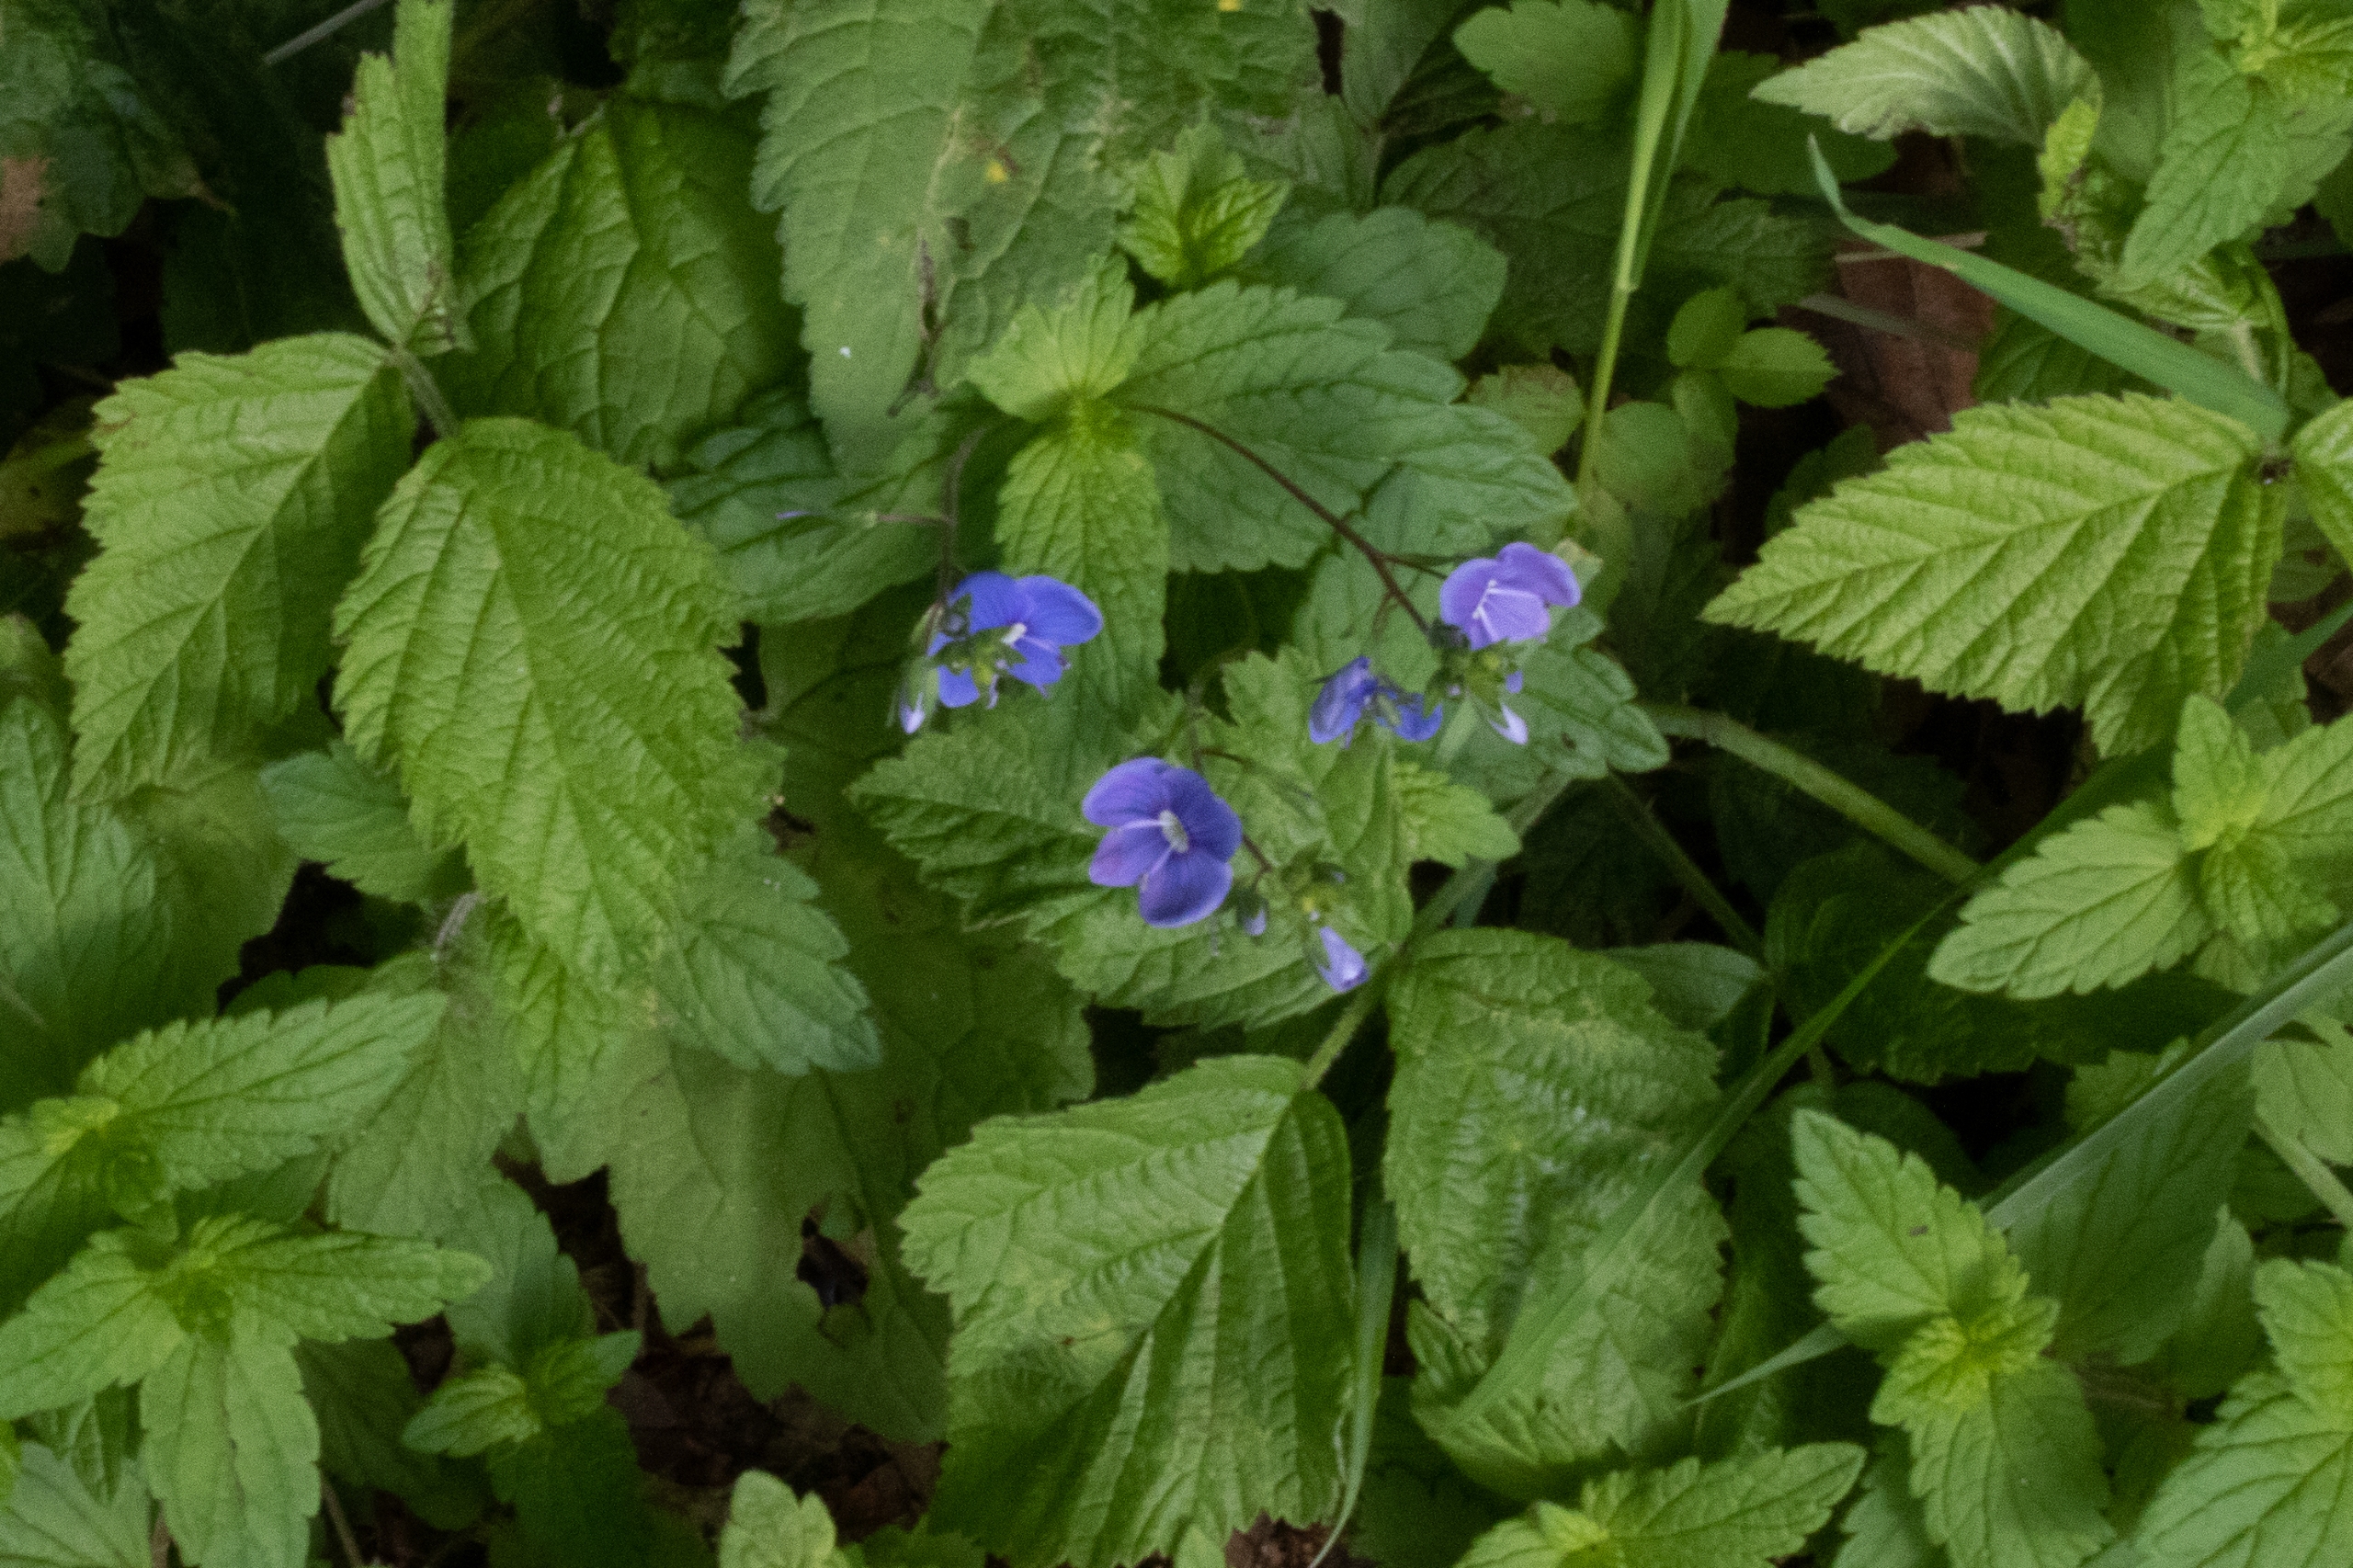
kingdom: Plantae
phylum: Tracheophyta
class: Magnoliopsida
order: Lamiales
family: Plantaginaceae
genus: Veronica
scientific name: Veronica chamaedrys
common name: Tveskægget ærenpris
